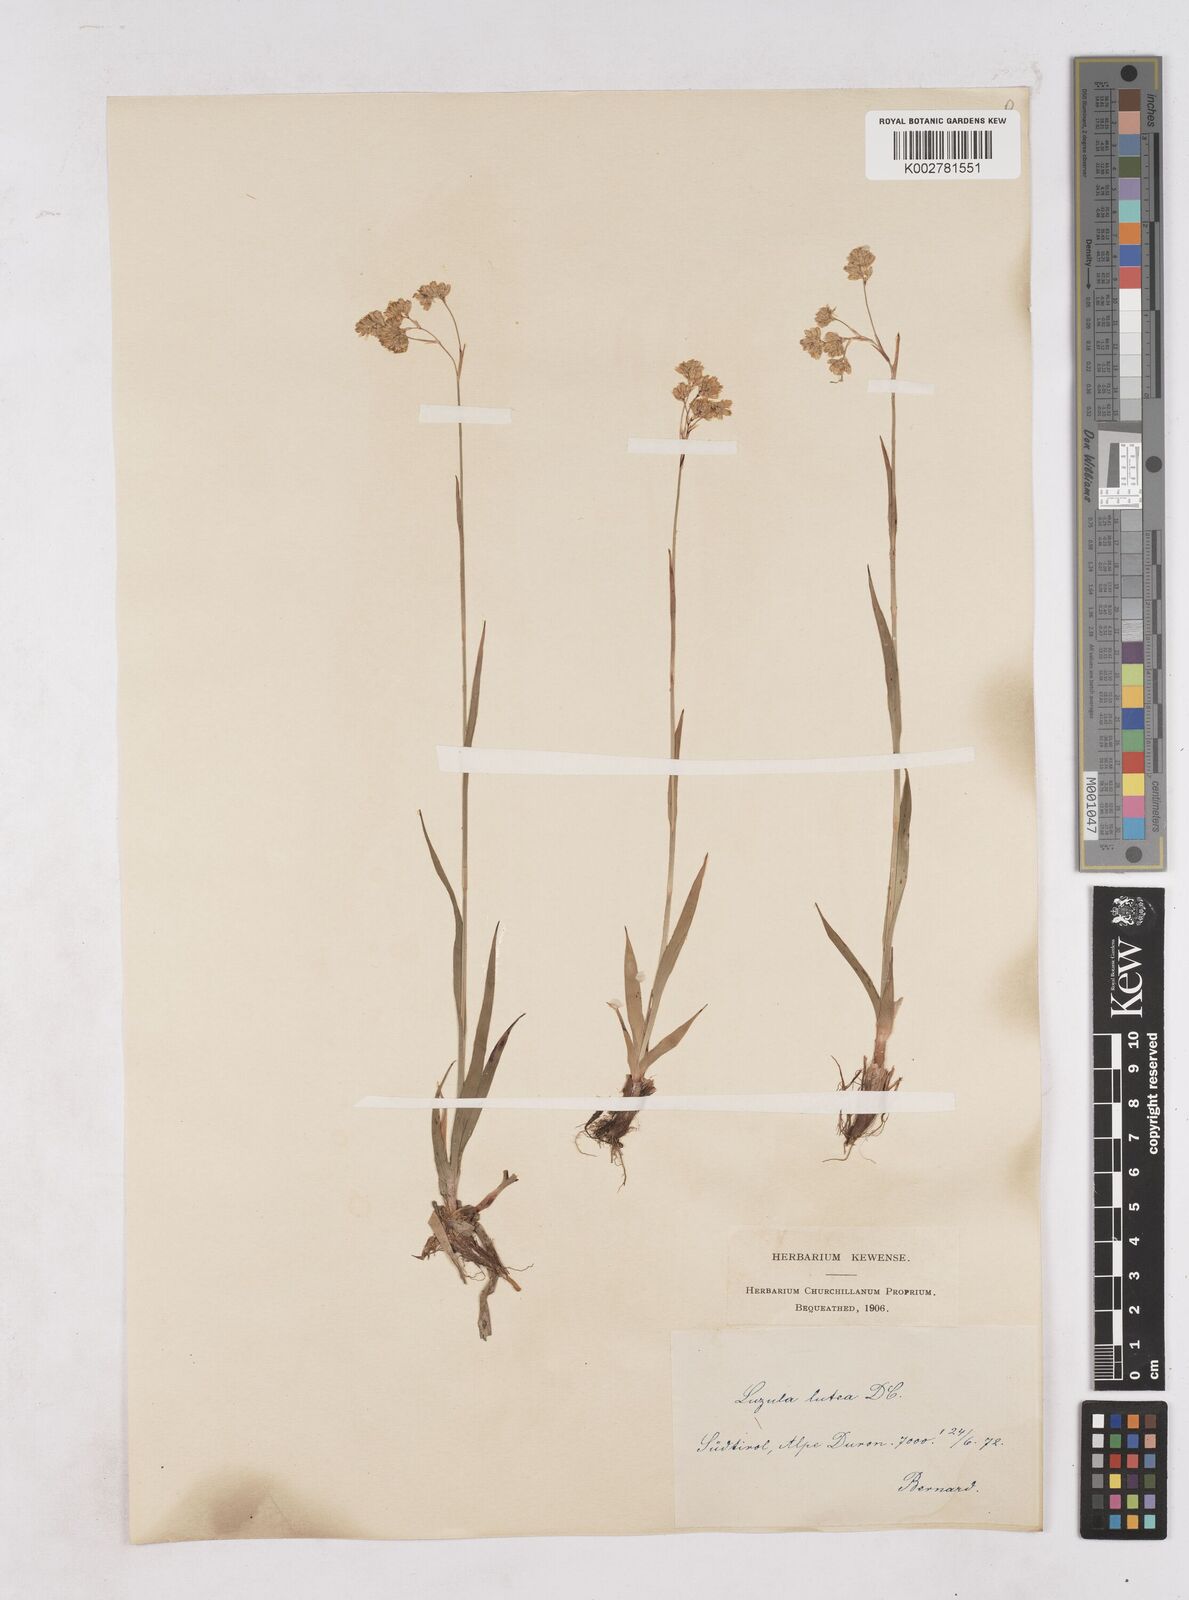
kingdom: Plantae
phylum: Tracheophyta
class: Liliopsida
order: Poales
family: Juncaceae
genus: Luzula
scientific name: Luzula lutea
